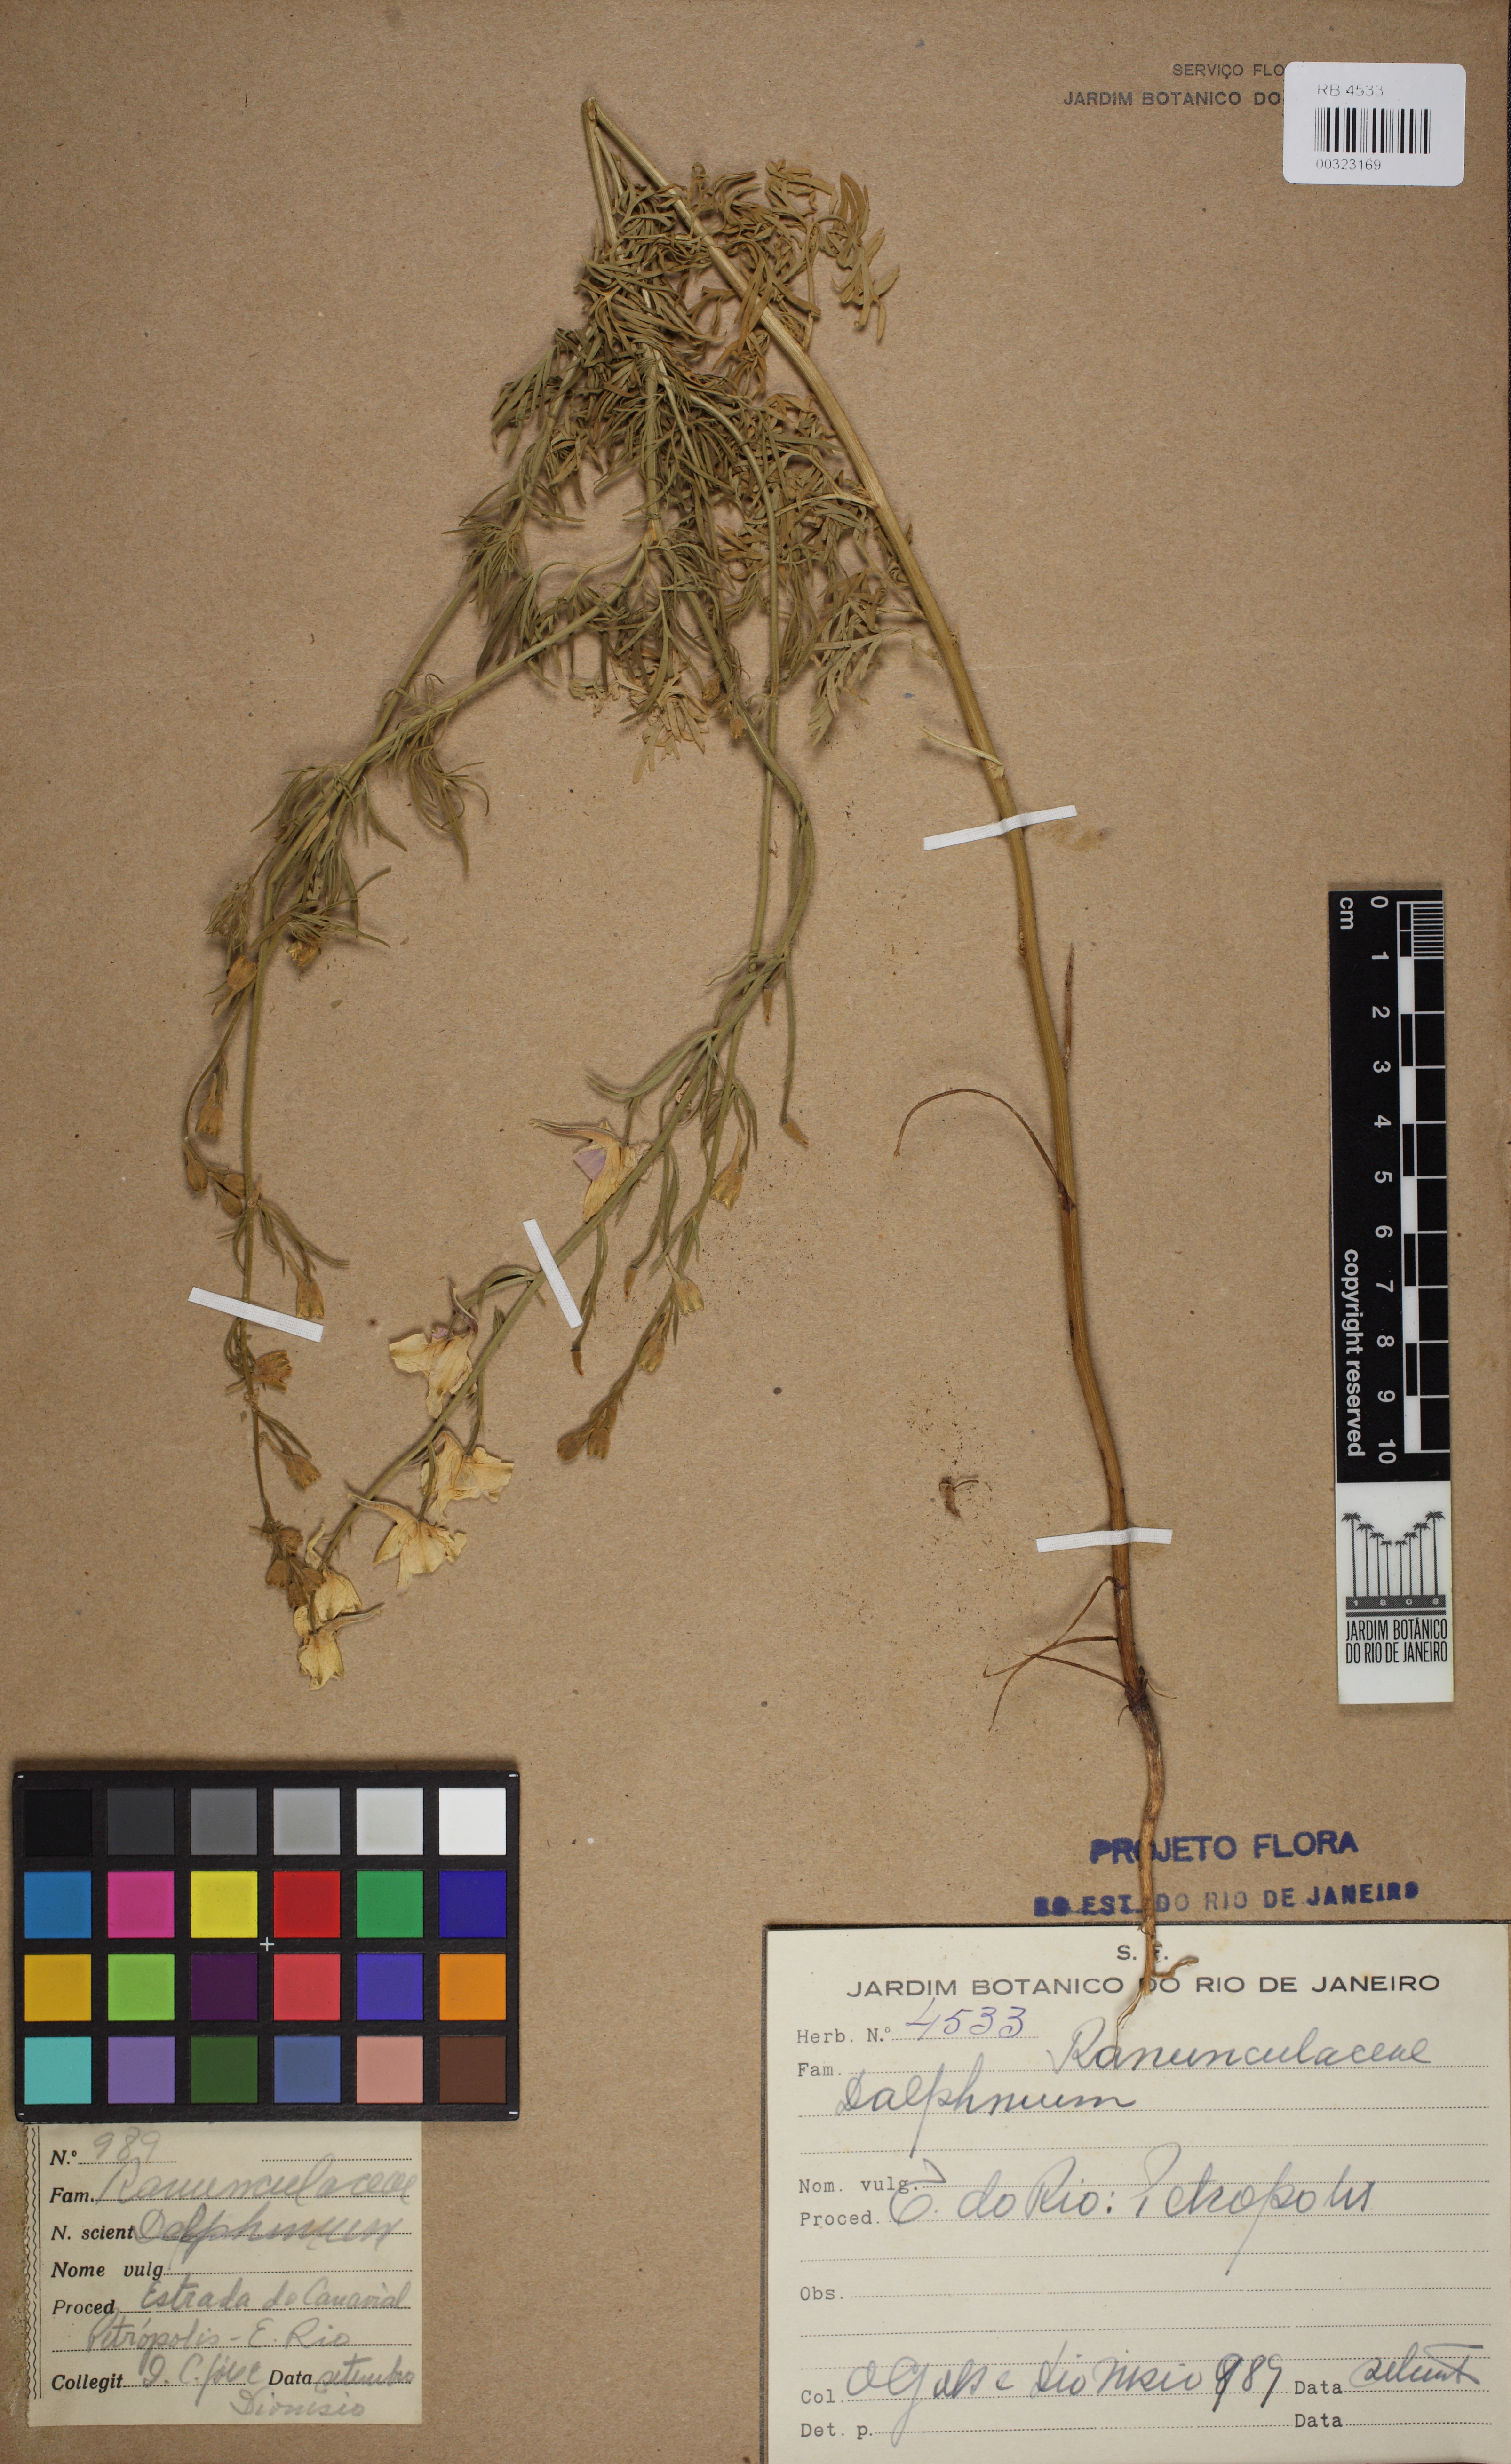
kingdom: Plantae
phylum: Tracheophyta
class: Magnoliopsida
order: Ranunculales
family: Ranunculaceae
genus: Delphinium
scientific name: Delphinium
